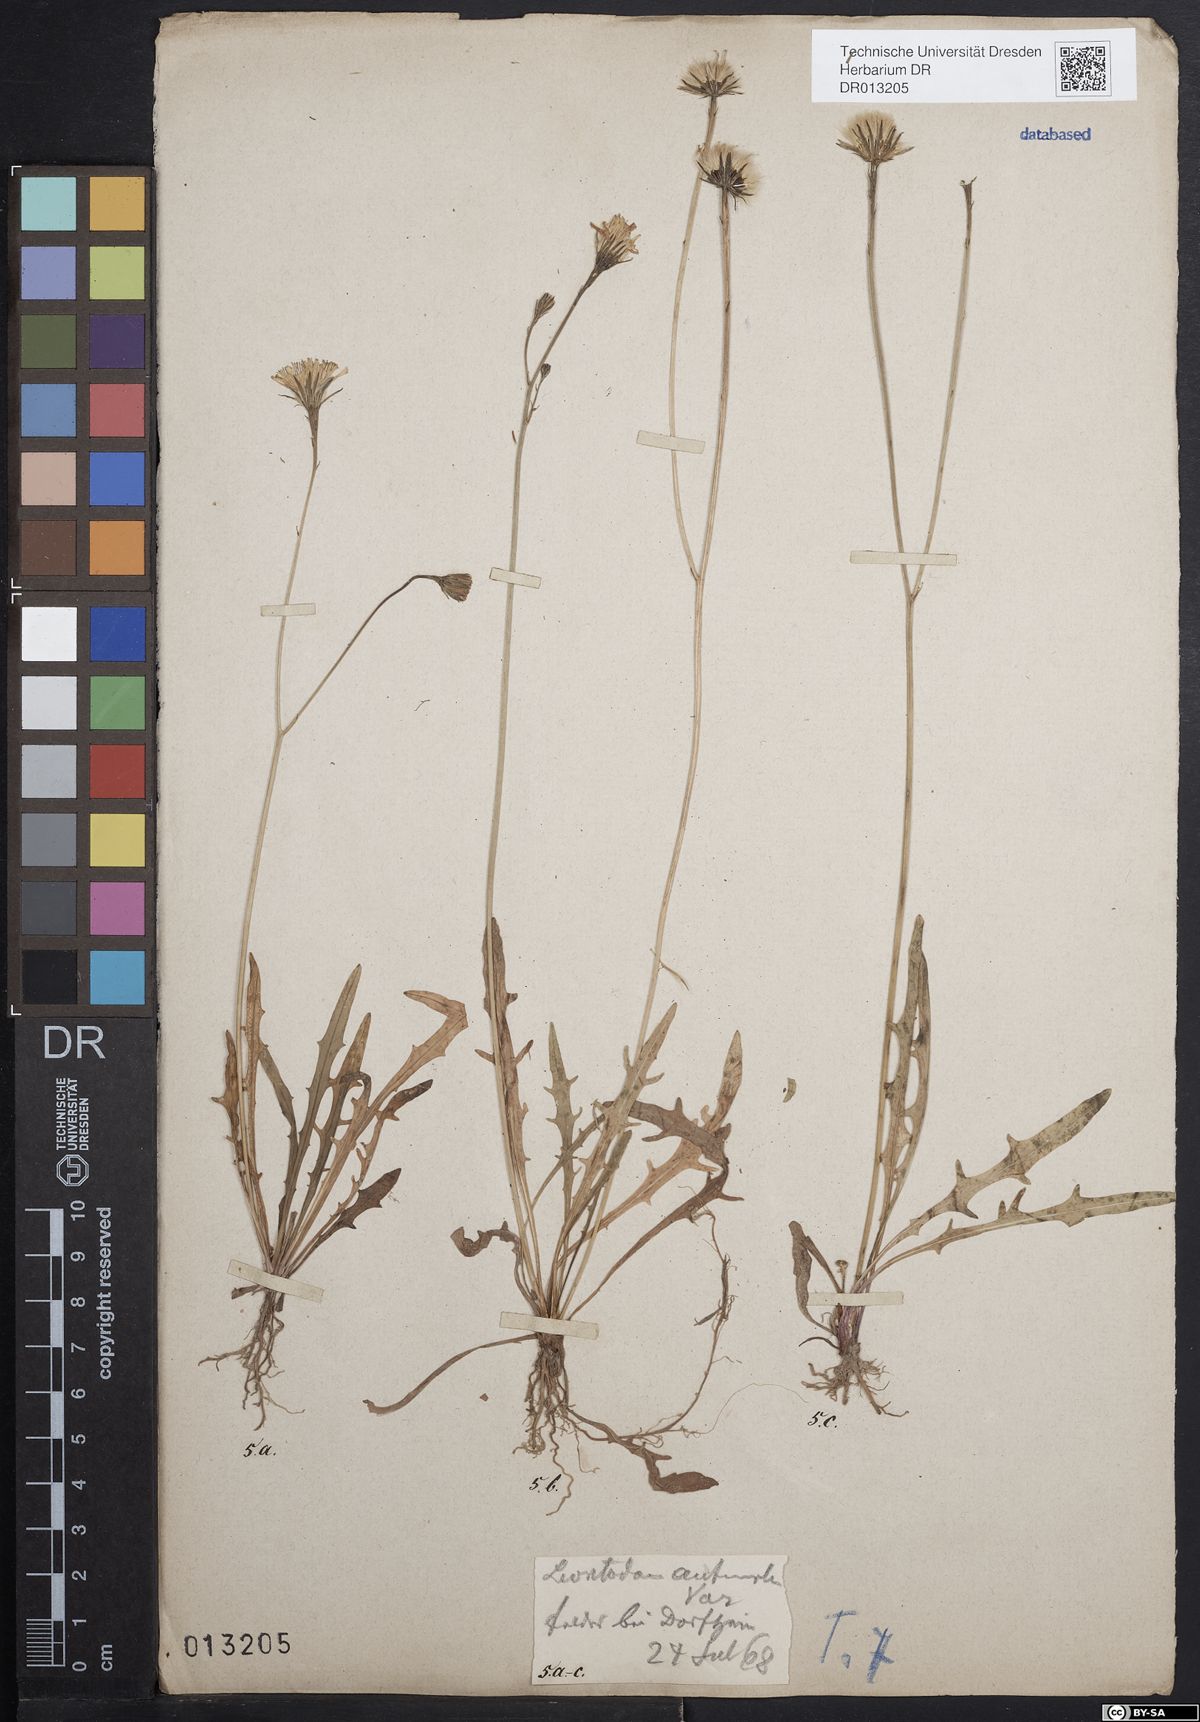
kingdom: Plantae
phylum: Tracheophyta
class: Magnoliopsida
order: Asterales
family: Asteraceae
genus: Scorzoneroides
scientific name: Scorzoneroides autumnalis
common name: Autumn hawkbit
